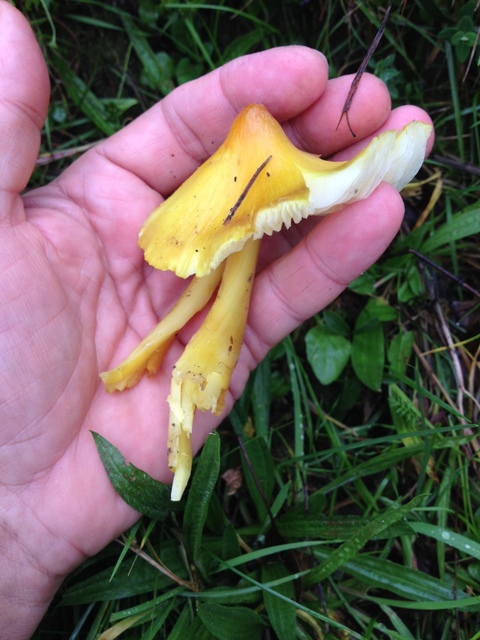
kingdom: Fungi
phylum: Basidiomycota
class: Agaricomycetes
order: Agaricales
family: Hygrophoraceae
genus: Hygrocybe
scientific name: Hygrocybe citrinovirens
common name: grøngul vokshat
